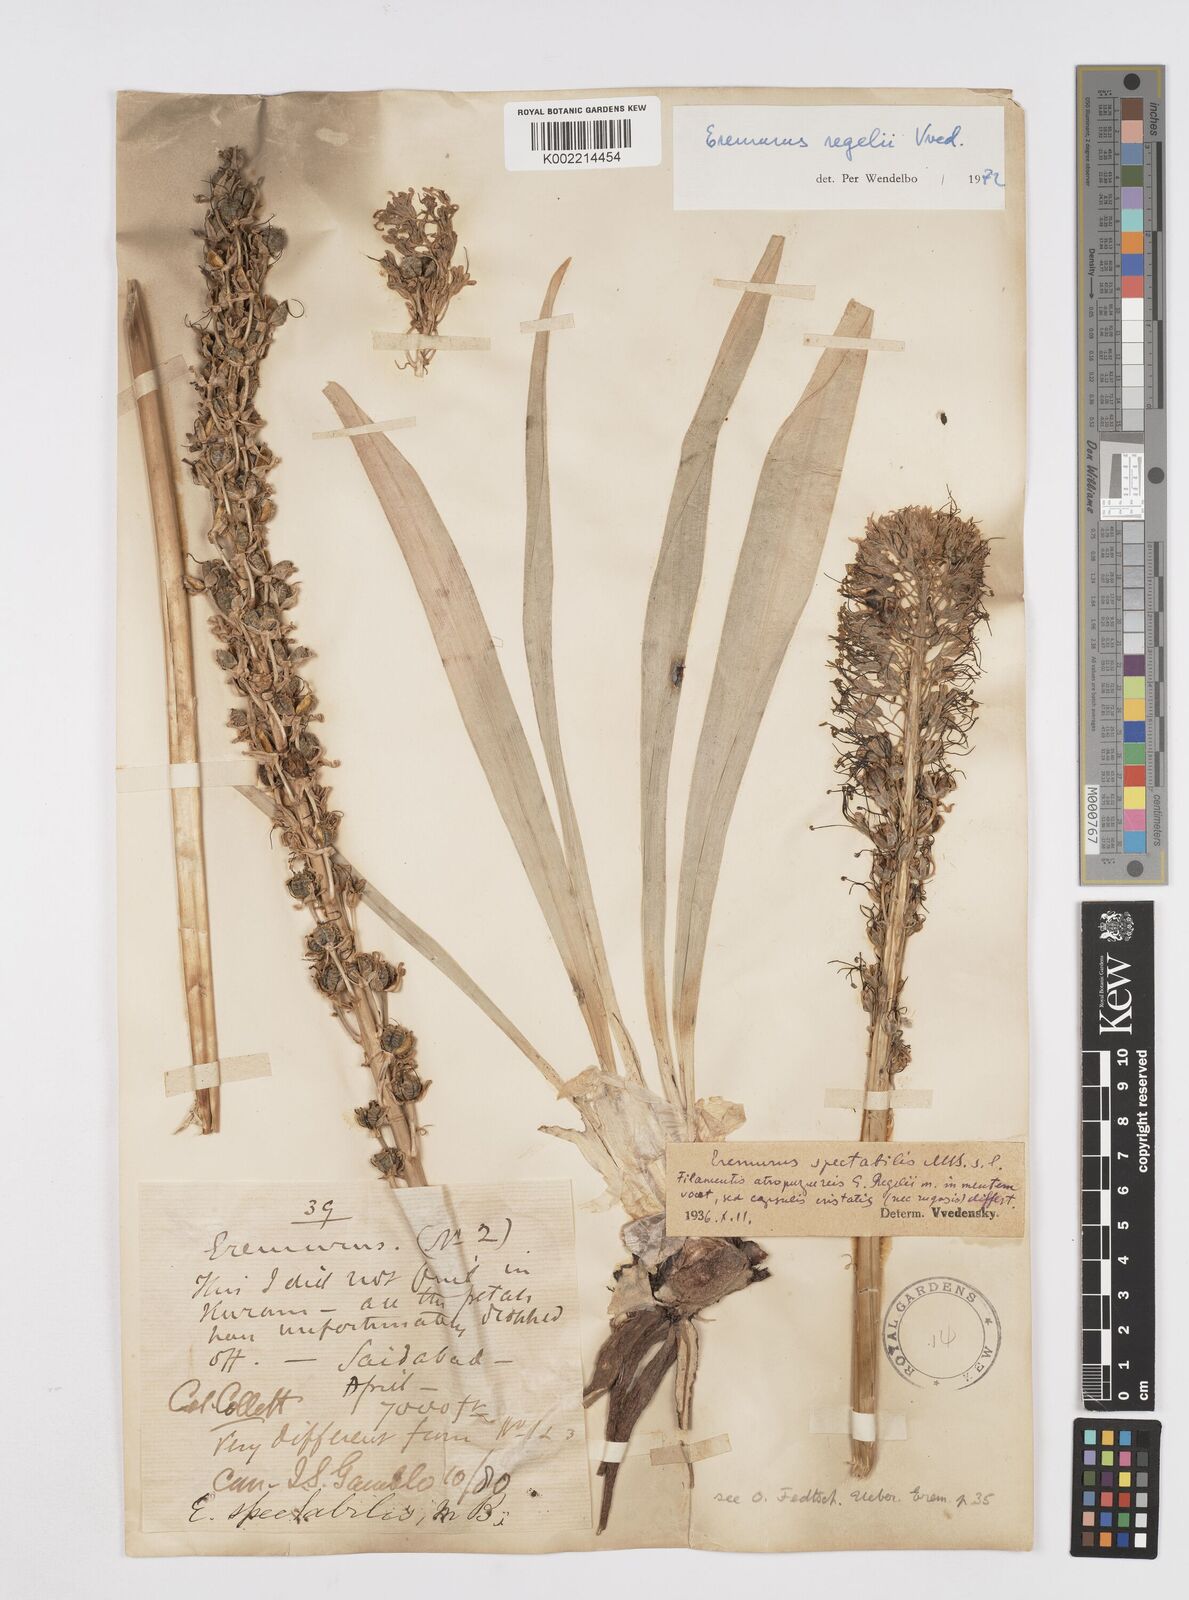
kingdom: Plantae
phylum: Tracheophyta
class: Liliopsida
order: Asparagales
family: Asphodelaceae
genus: Eremurus
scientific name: Eremurus regelii
